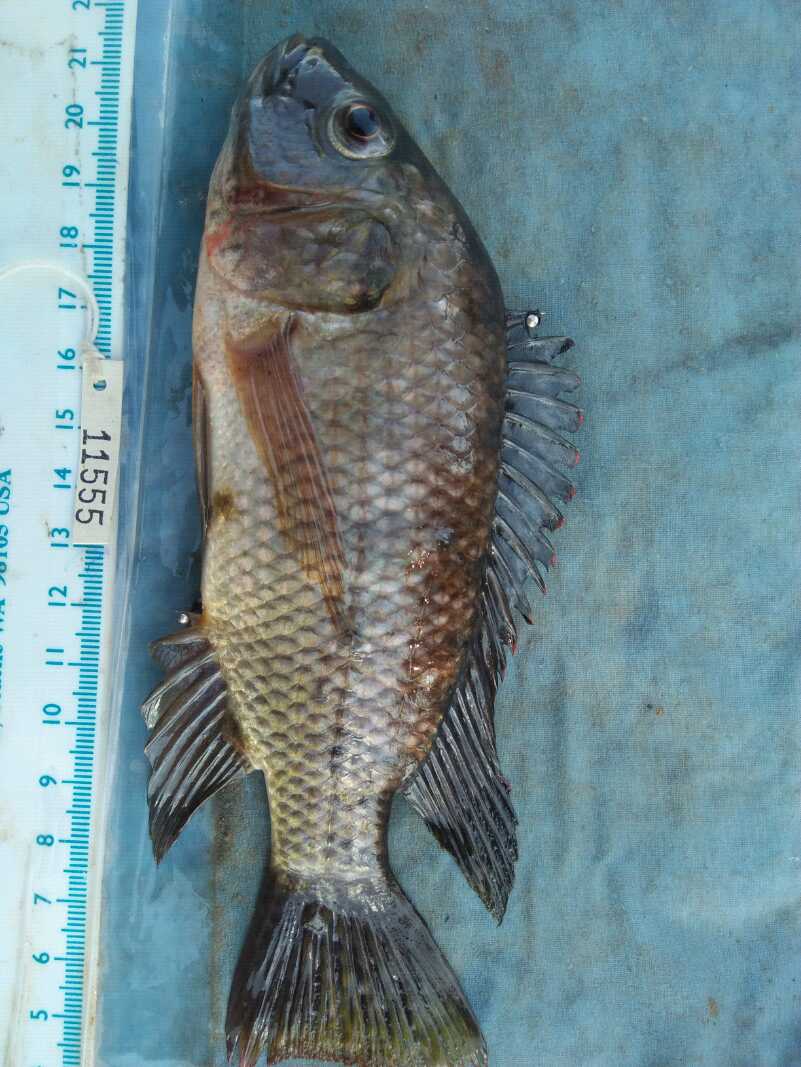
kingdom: Animalia
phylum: Chordata
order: Perciformes
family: Cichlidae
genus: Oreochromis
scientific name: Oreochromis spilurus
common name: Sabaki tilapia
